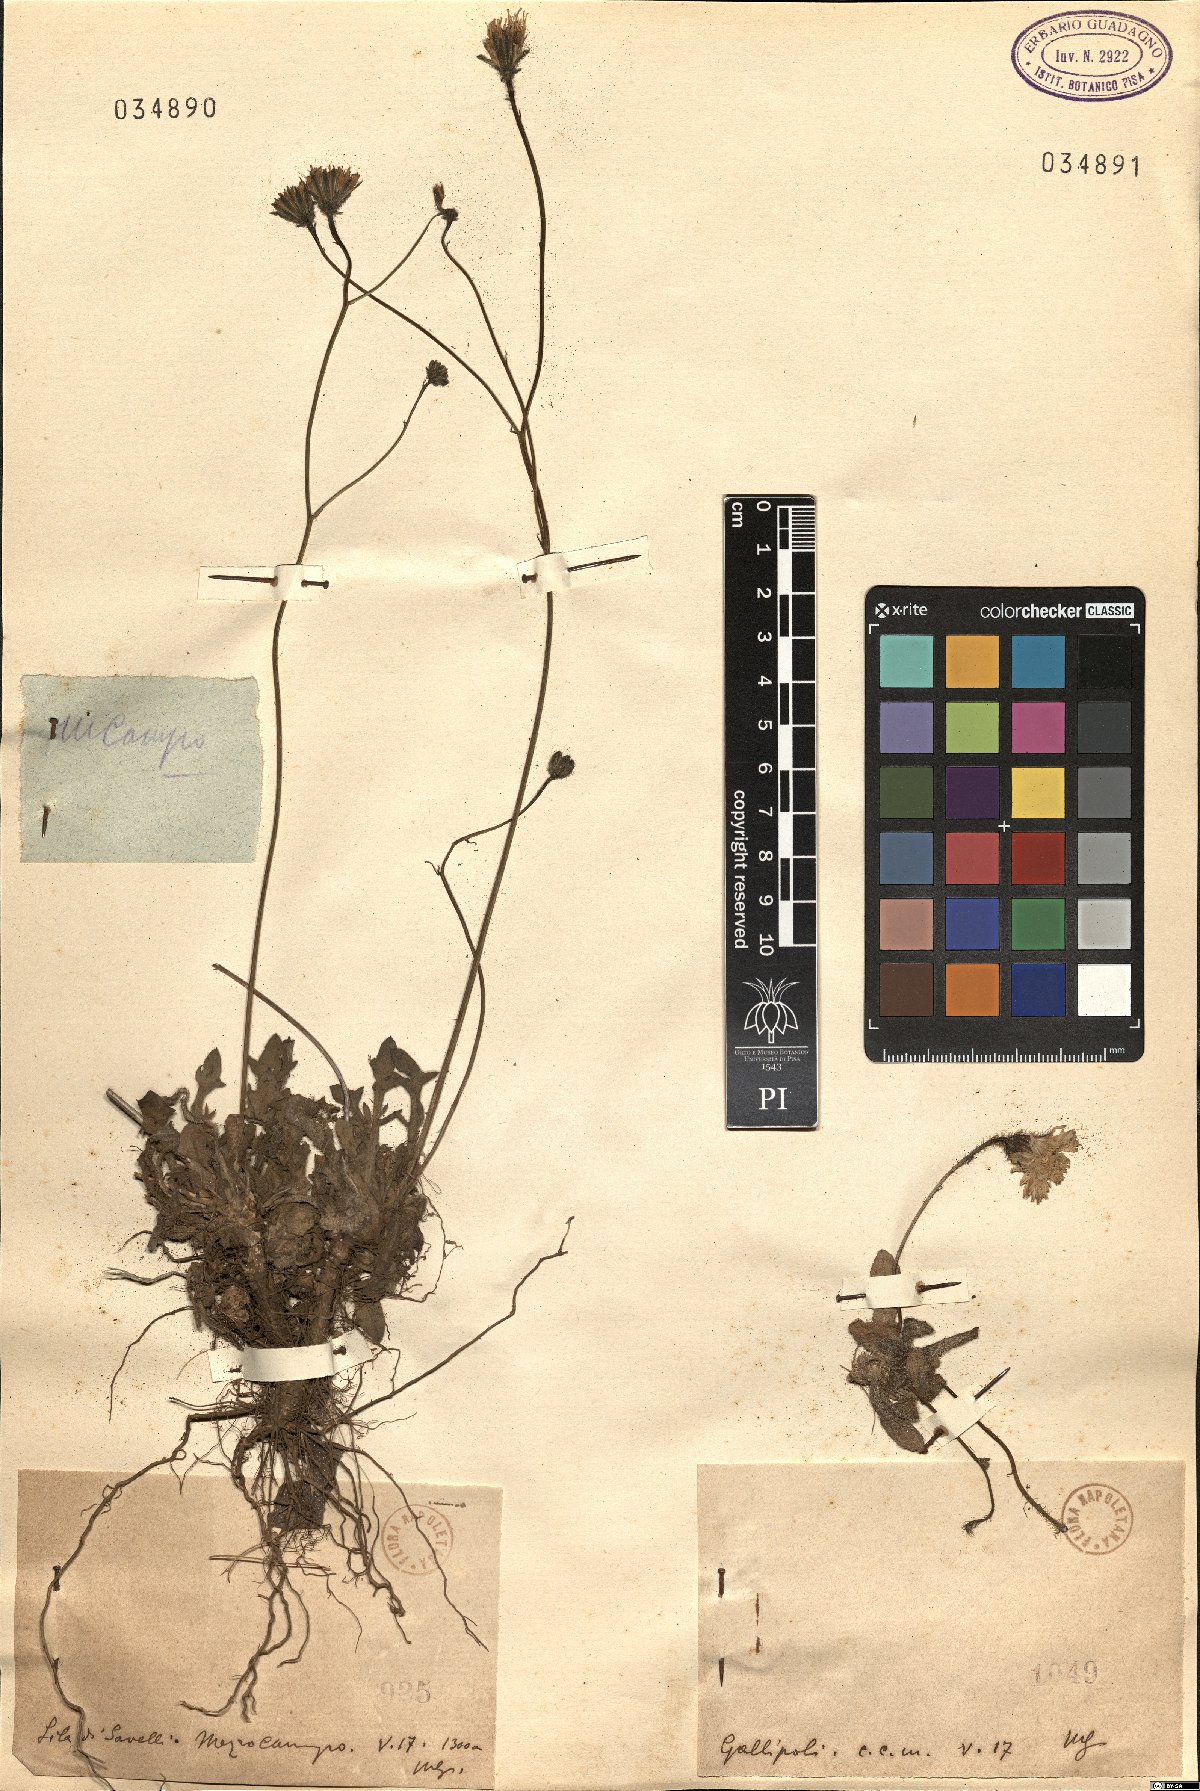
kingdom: Plantae
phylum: Tracheophyta
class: Magnoliopsida
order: Asterales
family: Asteraceae
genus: Hypochaeris
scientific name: Hypochaeris
